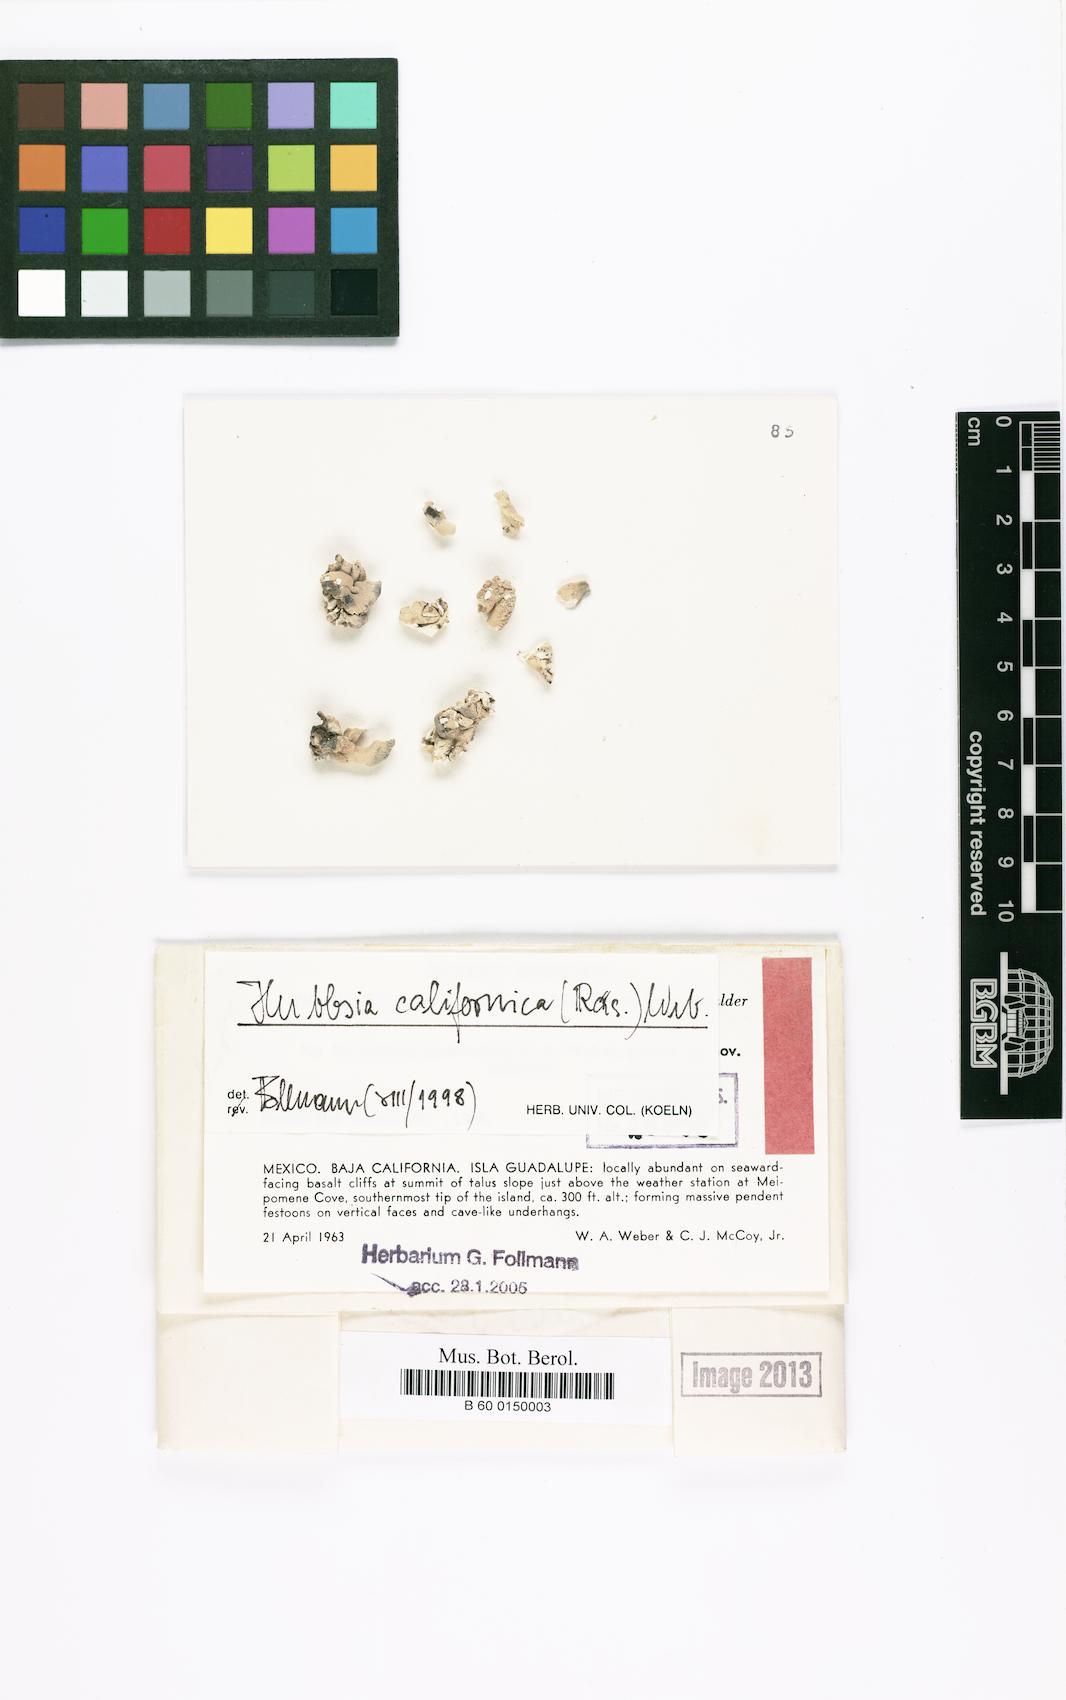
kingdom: Fungi
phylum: Ascomycota
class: Arthoniomycetes
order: Arthoniales
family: Opegraphaceae
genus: Schizopelte
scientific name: Schizopelte lumbricoides
